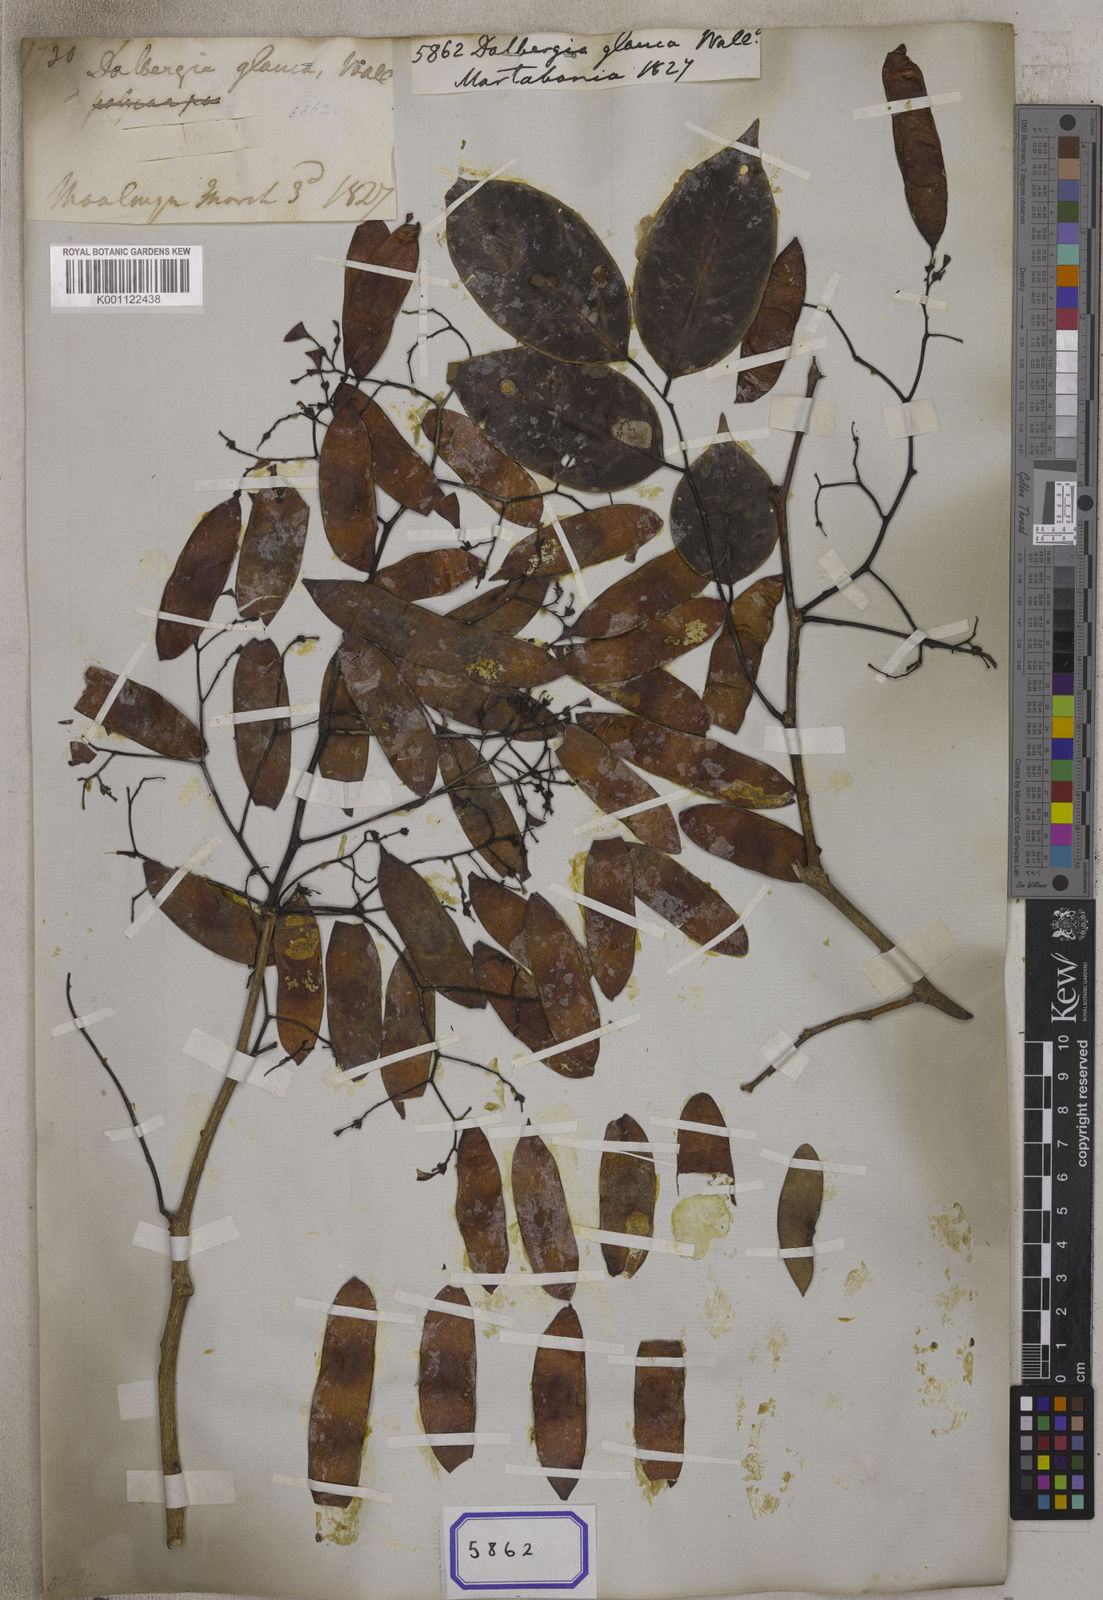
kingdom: Plantae
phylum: Tracheophyta
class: Magnoliopsida
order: Fabales
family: Fabaceae
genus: Dalbergia
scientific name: Dalbergia
